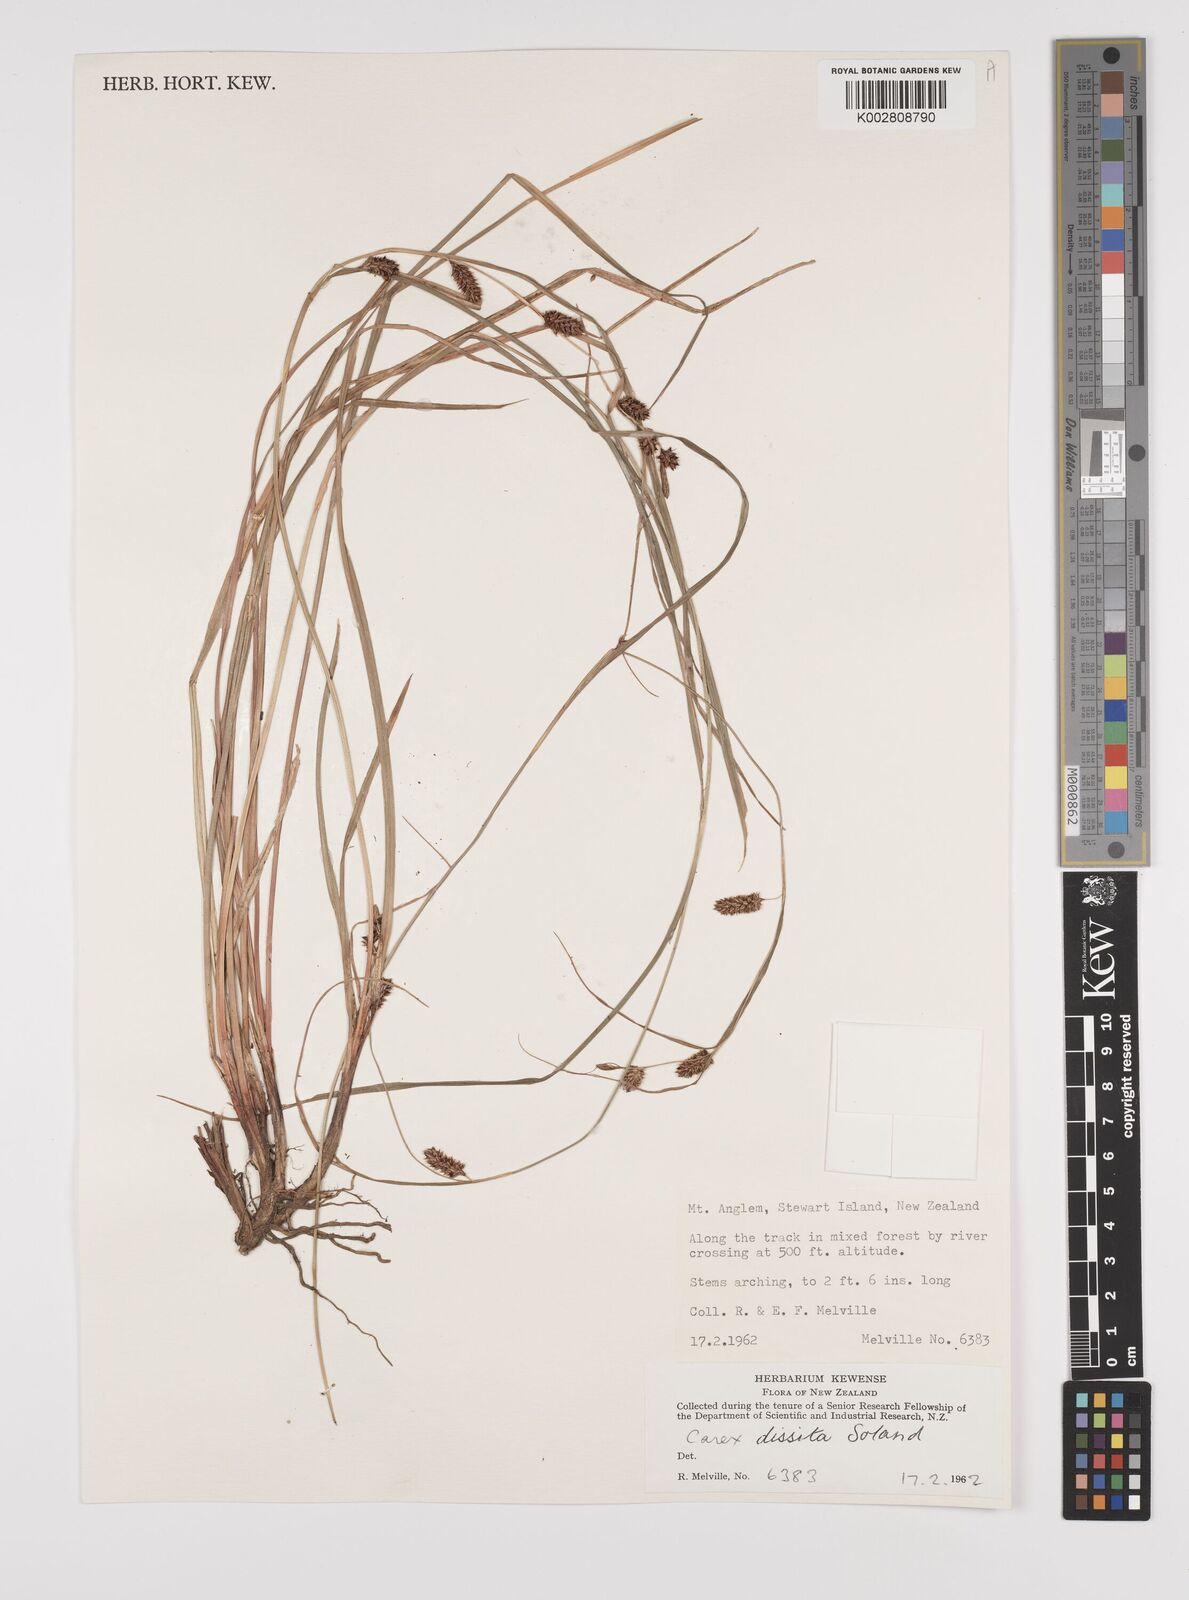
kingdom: Plantae
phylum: Tracheophyta
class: Liliopsida
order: Poales
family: Cyperaceae
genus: Carex
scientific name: Carex dissita
